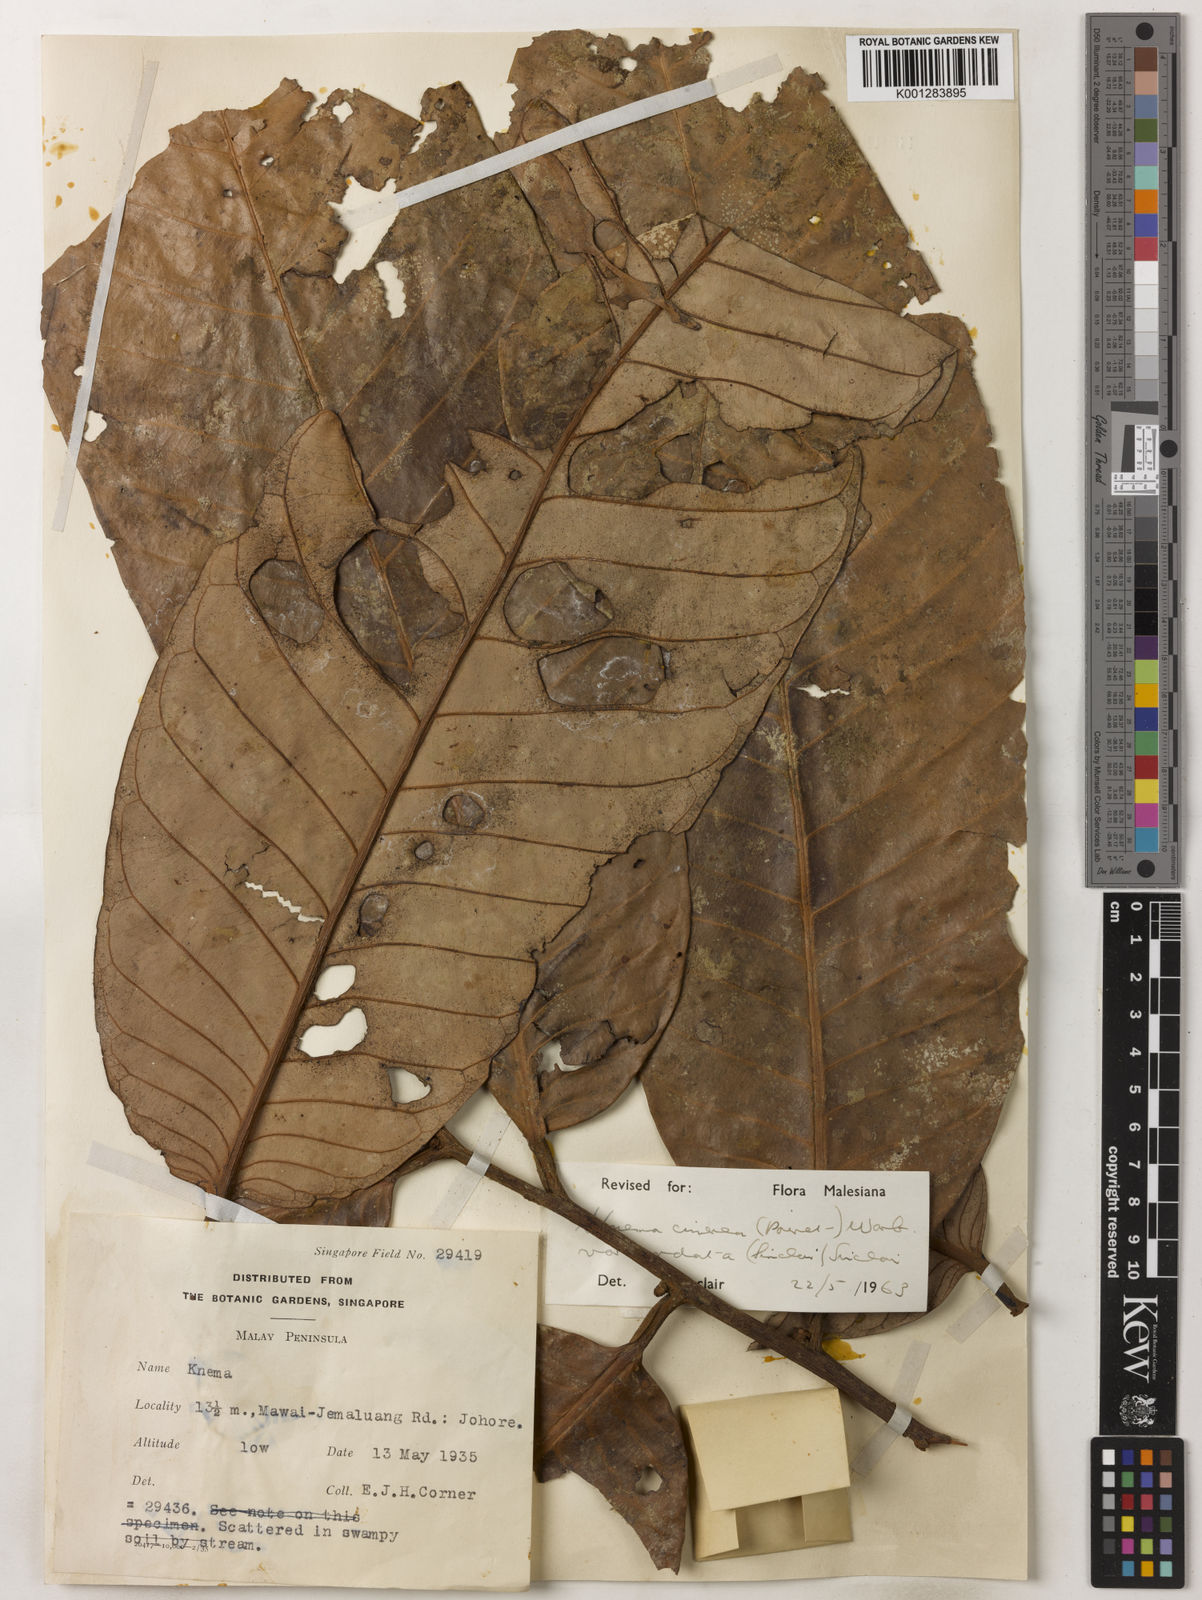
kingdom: Plantae
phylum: Tracheophyta
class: Magnoliopsida
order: Magnoliales
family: Myristicaceae
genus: Knema
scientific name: Knema
